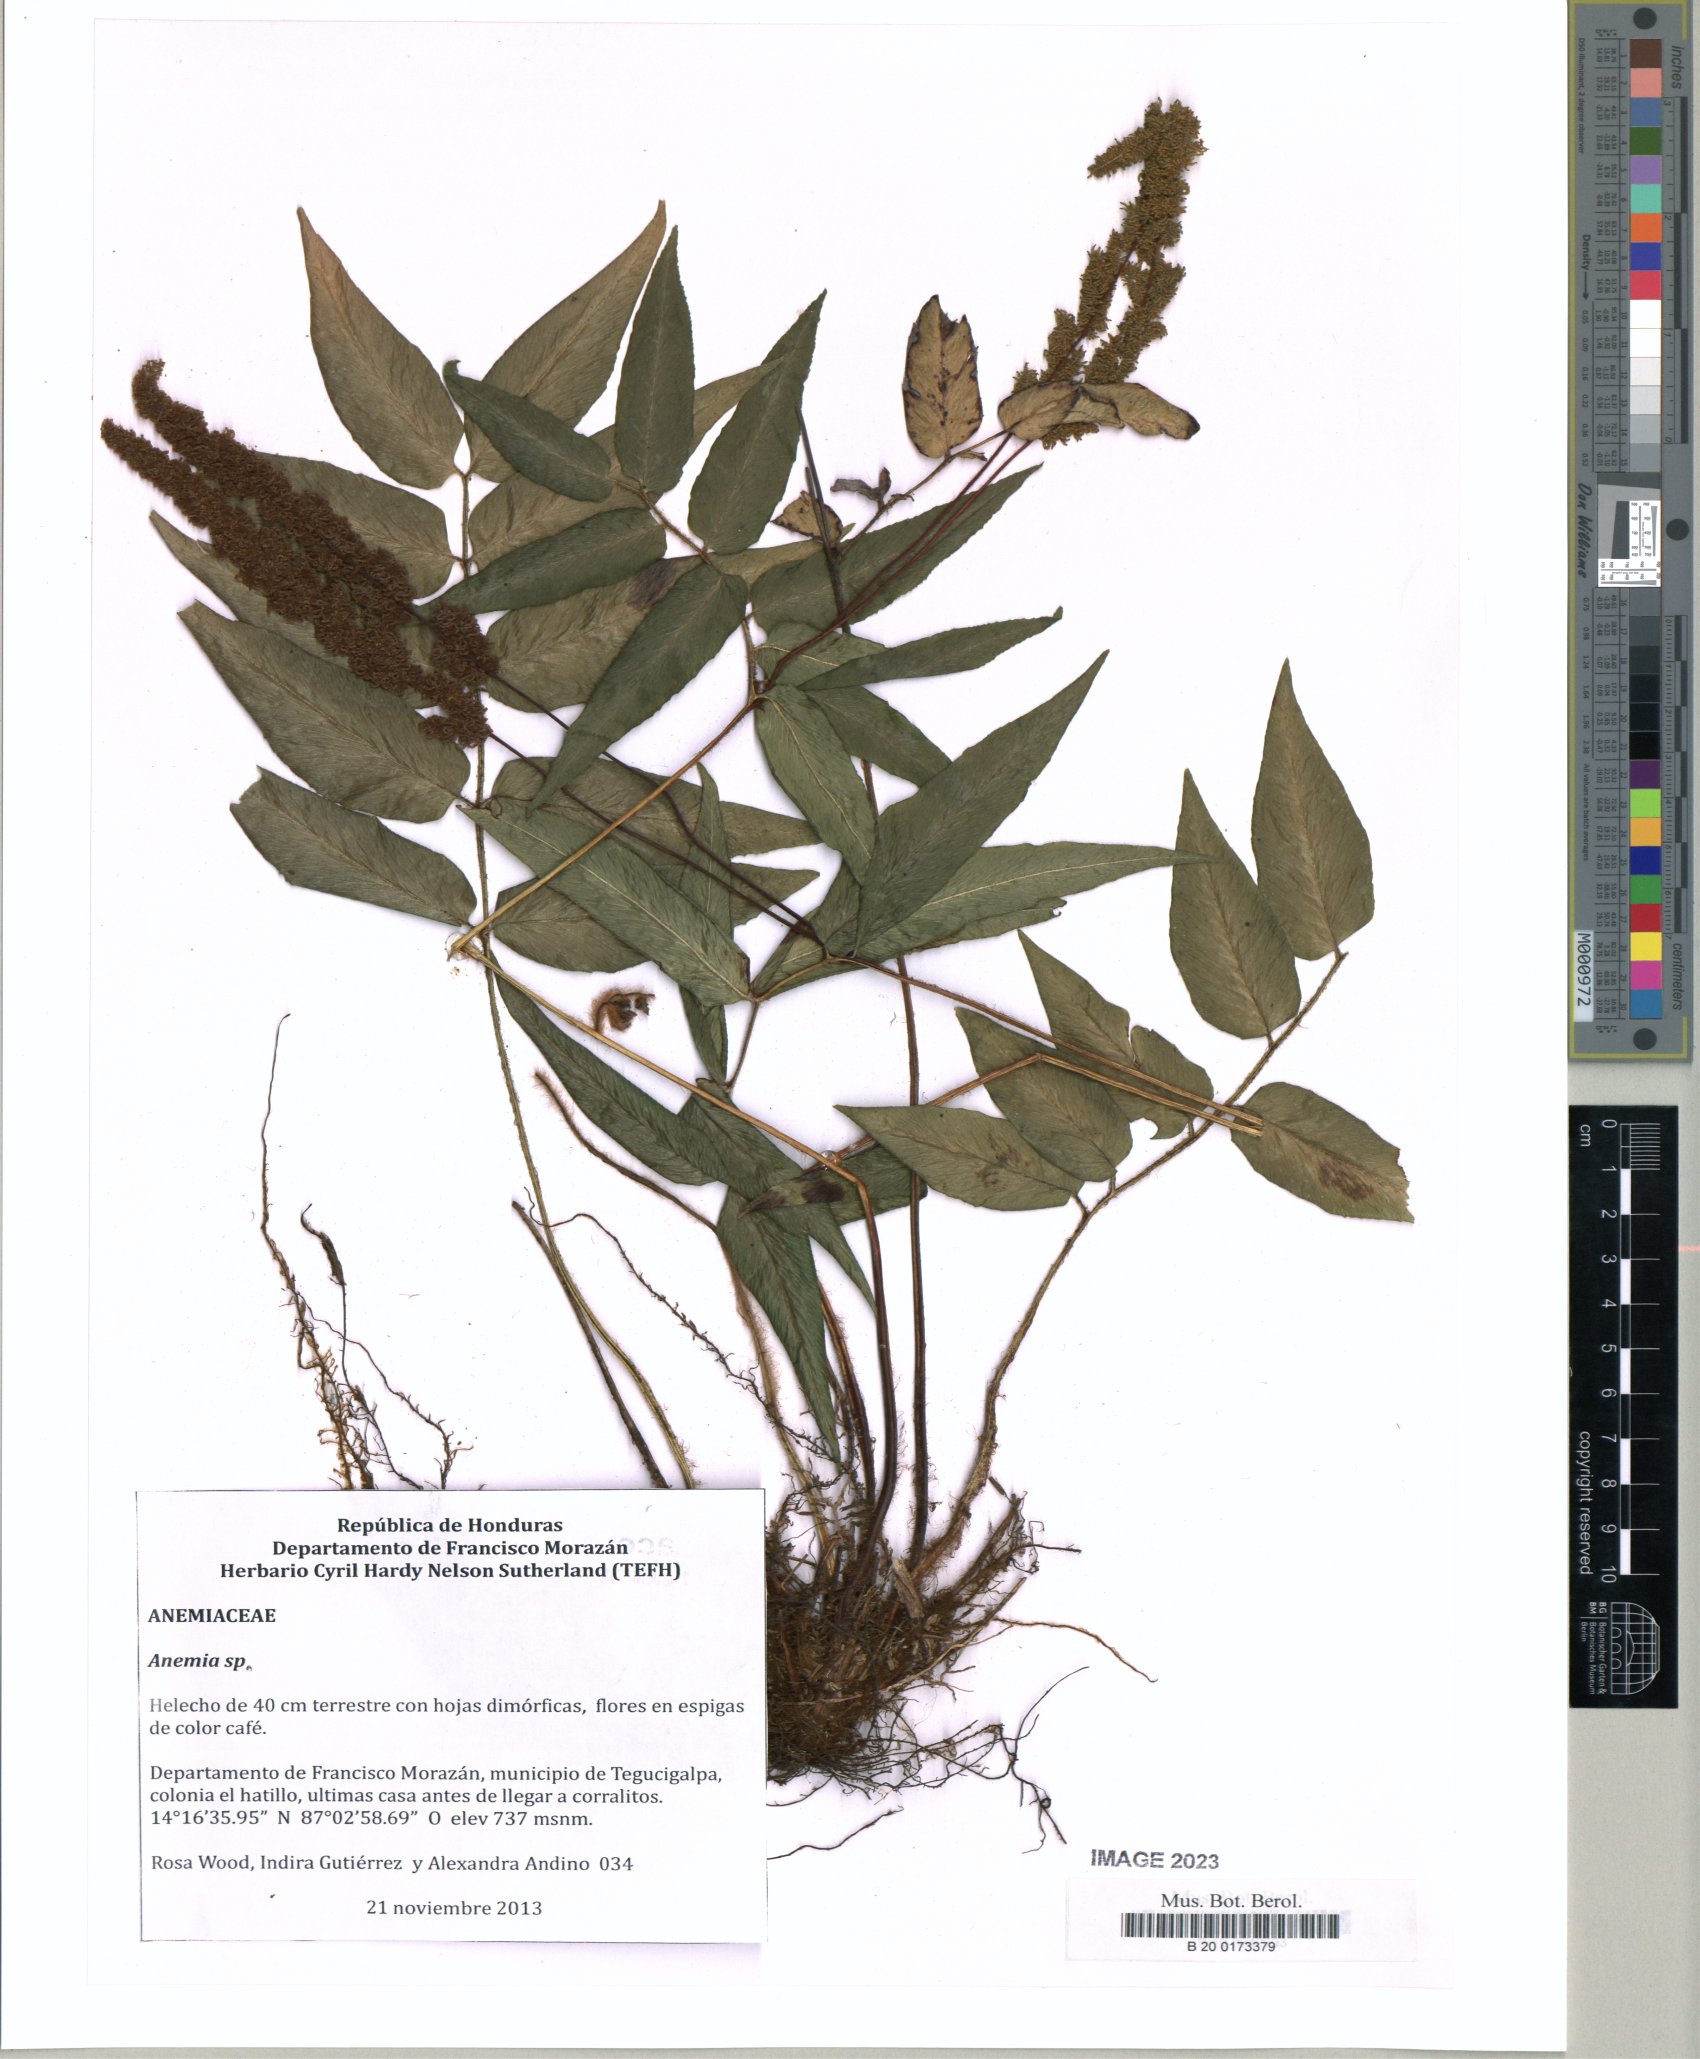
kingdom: Plantae
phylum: Tracheophyta
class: Polypodiopsida
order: Schizaeales
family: Anemiaceae
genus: Anemia
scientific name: Anemia phyllitidis
